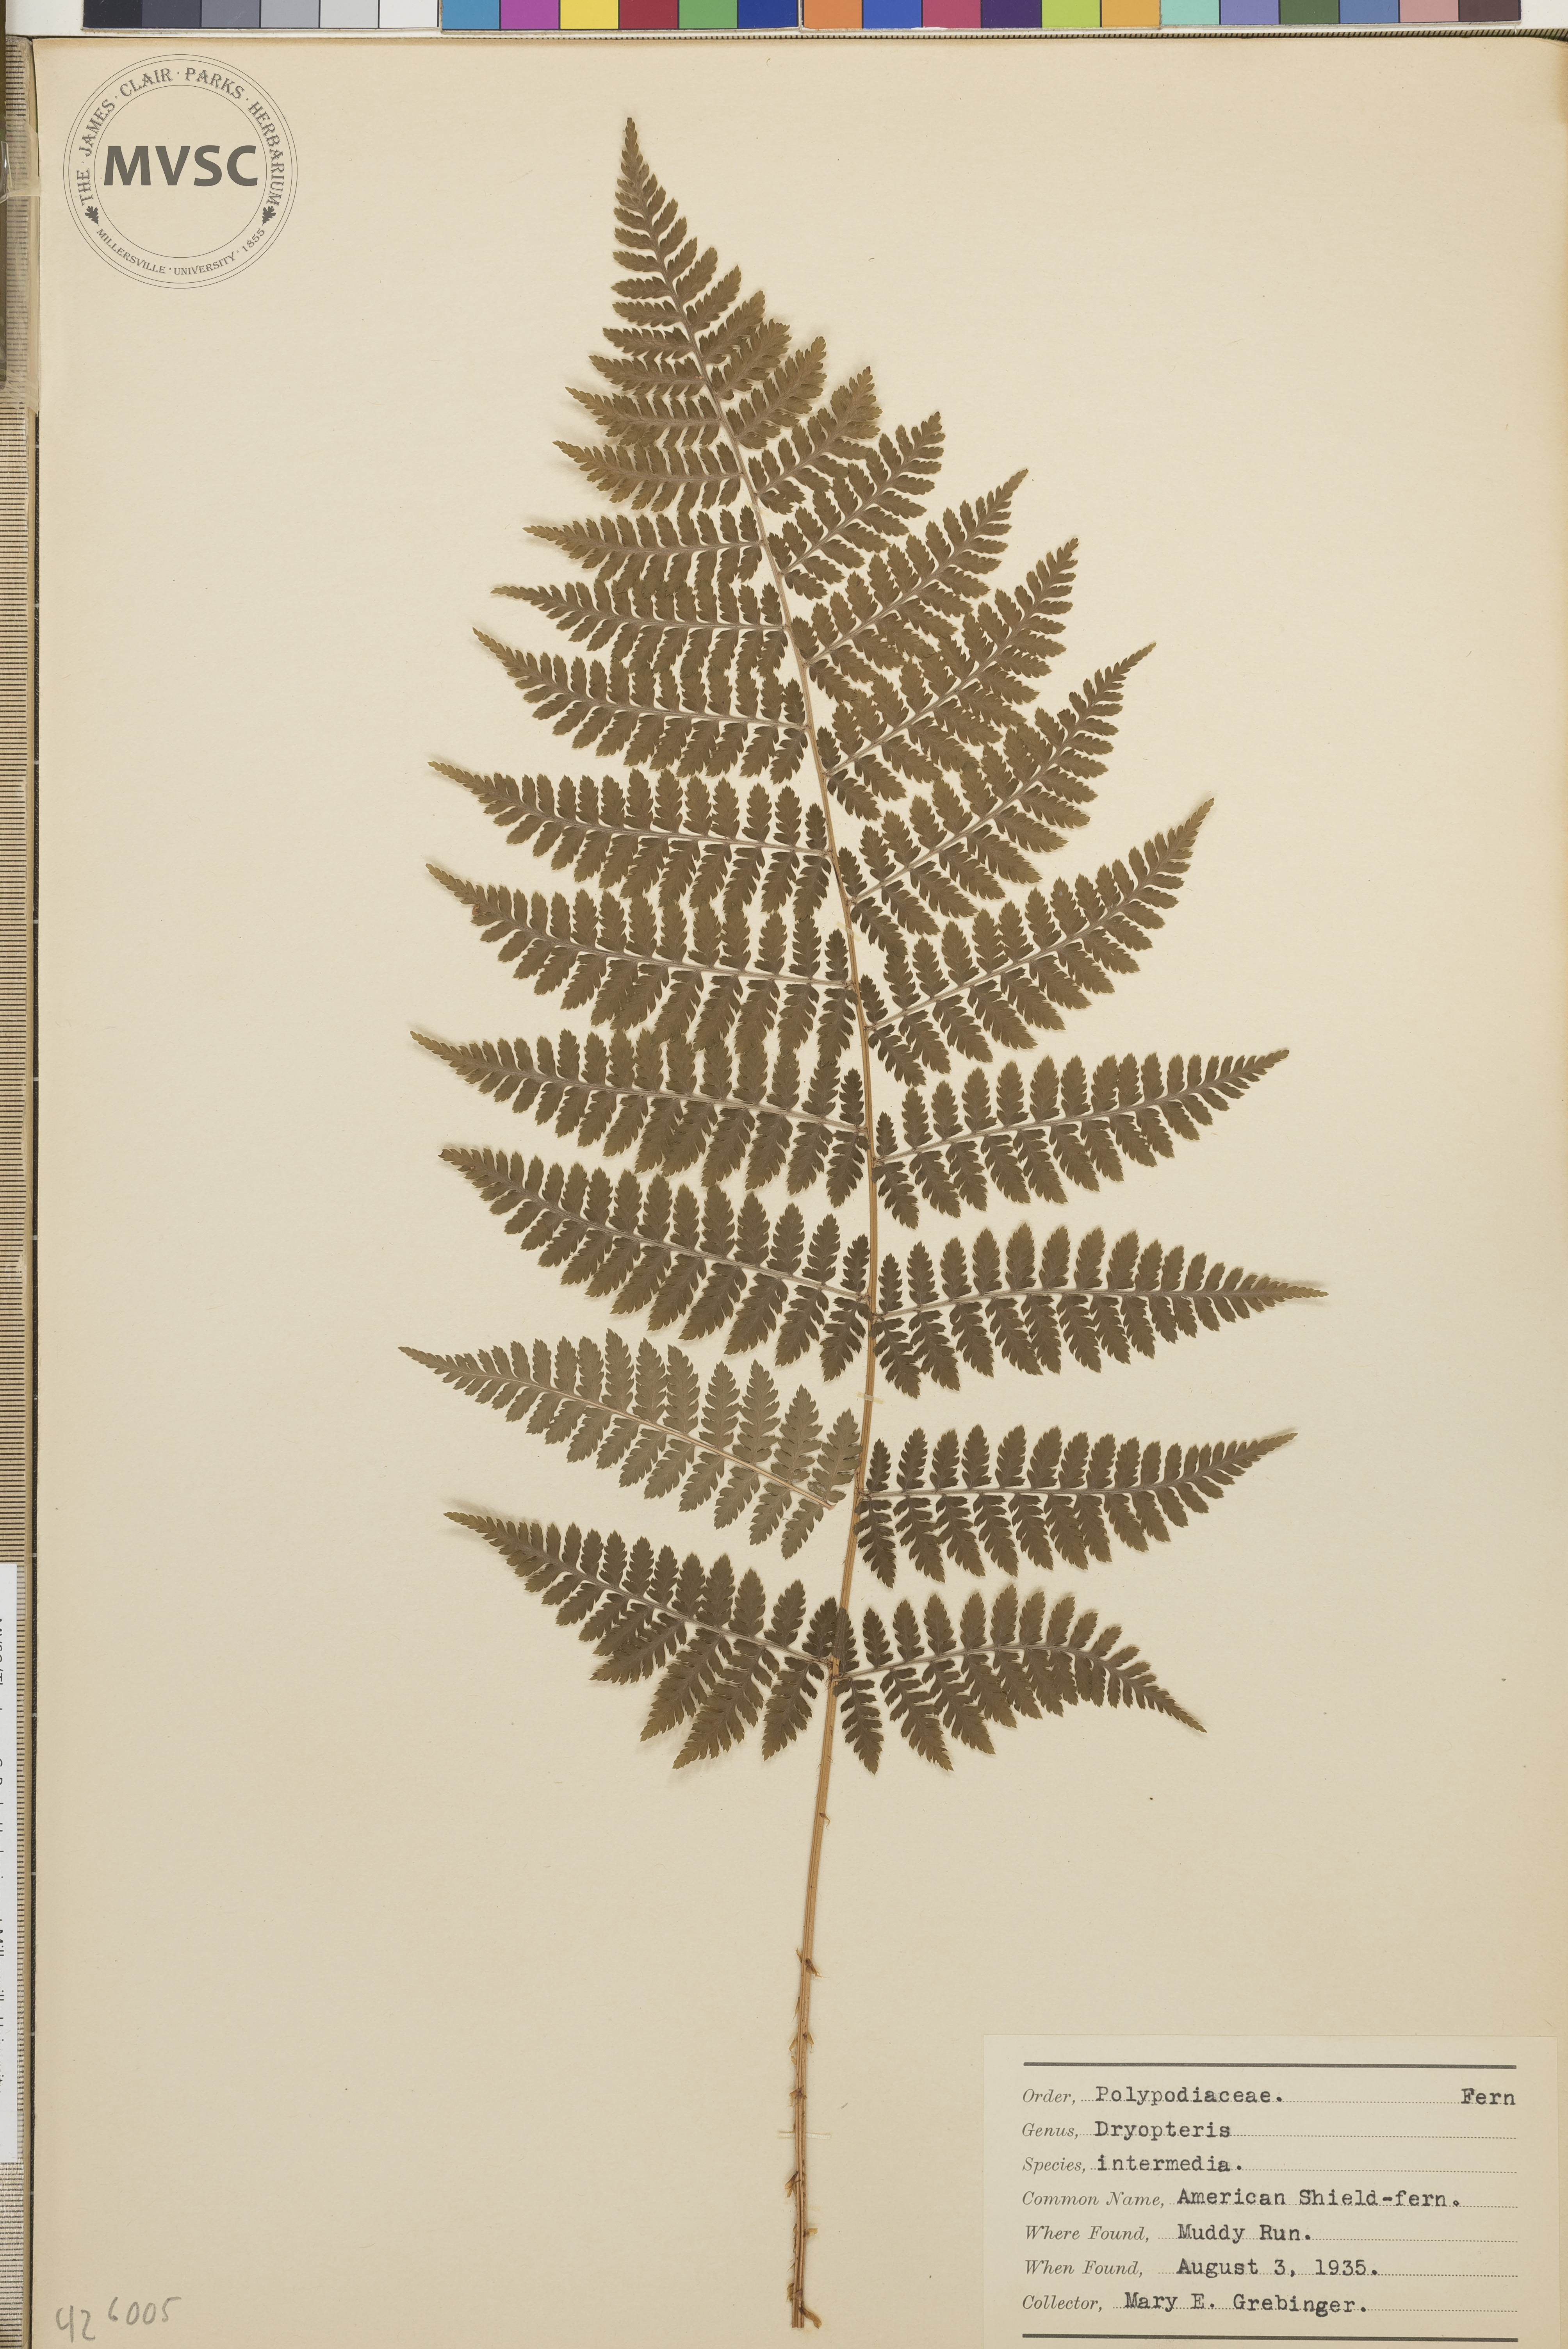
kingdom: Plantae
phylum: Tracheophyta
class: Polypodiopsida
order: Polypodiales
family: Dryopteridaceae
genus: Dryopteris
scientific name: Dryopteris intermedia
